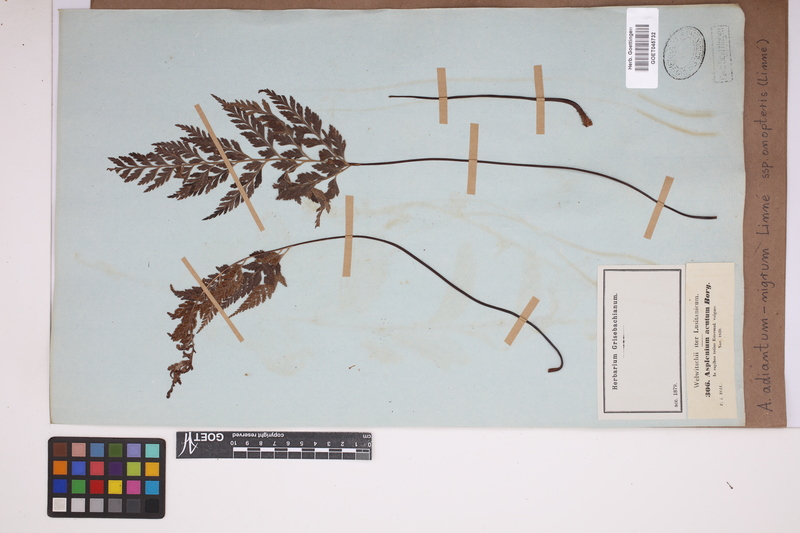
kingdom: Plantae
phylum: Tracheophyta
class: Polypodiopsida
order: Polypodiales
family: Aspleniaceae
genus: Asplenium
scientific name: Asplenium onopteris
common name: Irish spleenwort
